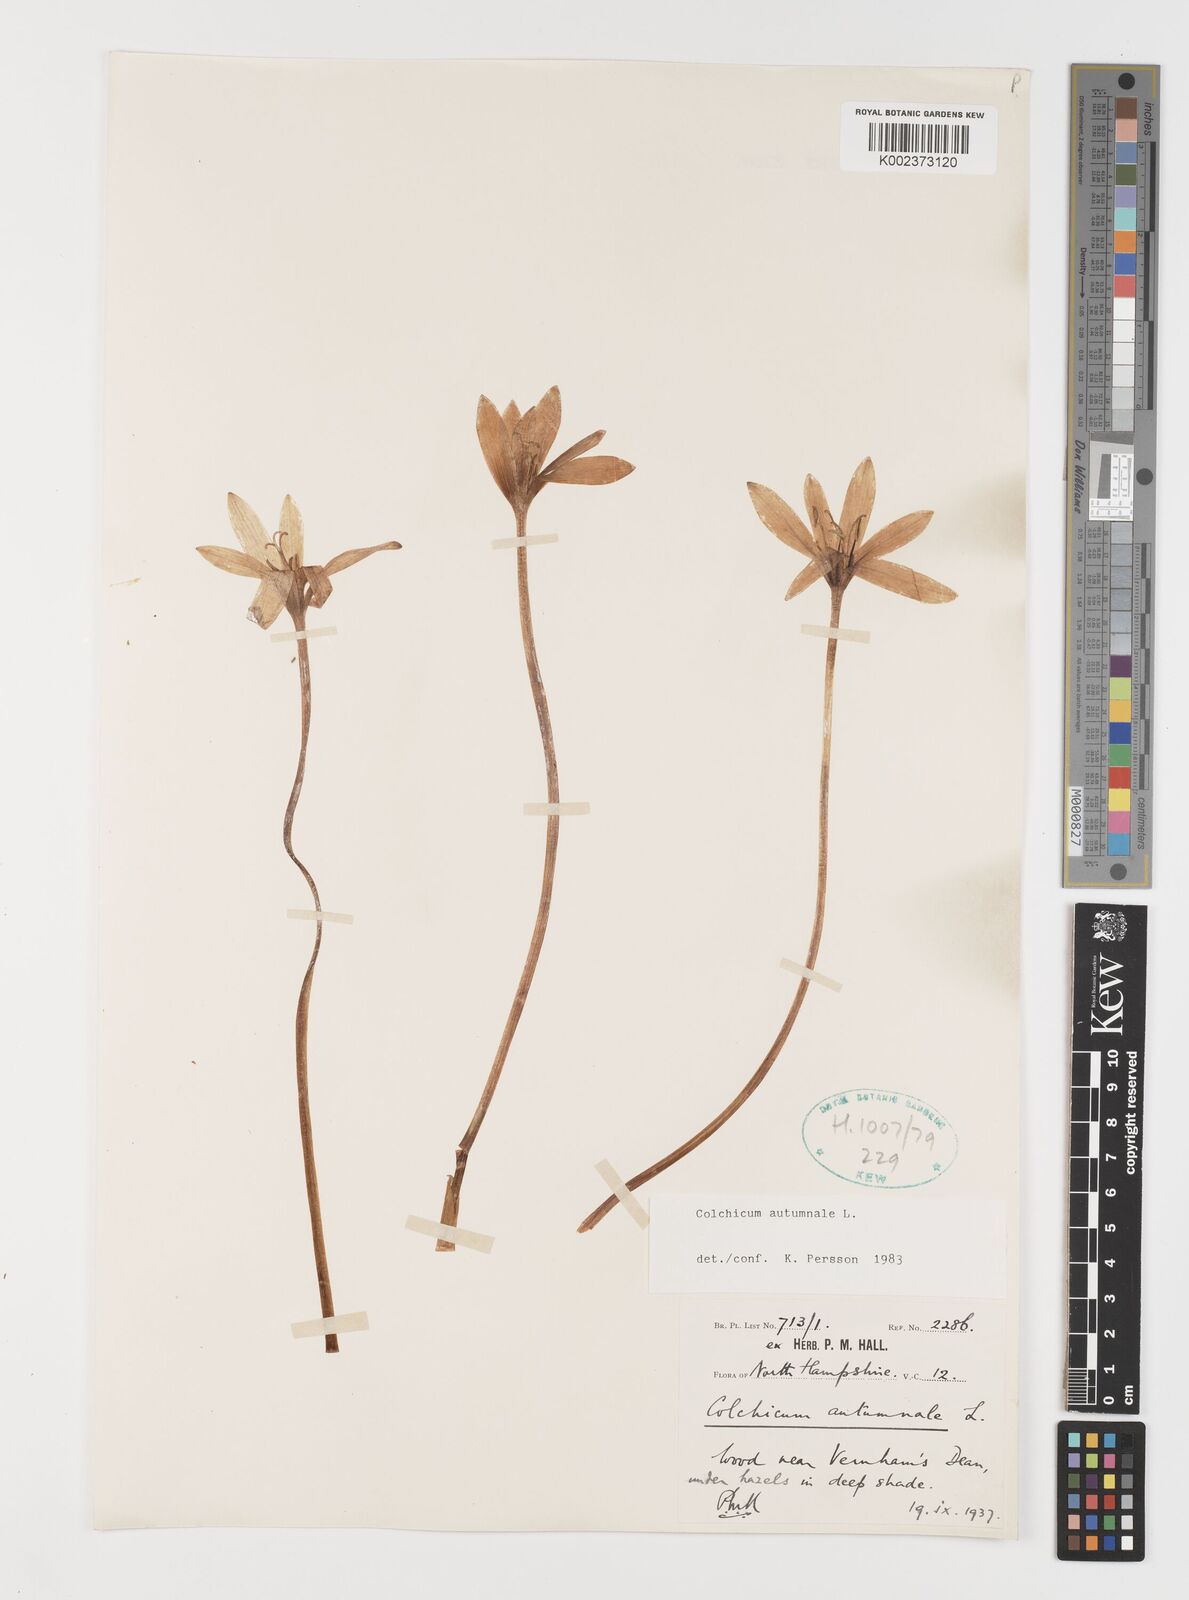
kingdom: Plantae
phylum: Tracheophyta
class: Liliopsida
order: Liliales
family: Colchicaceae
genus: Colchicum
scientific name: Colchicum autumnale
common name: Autumn crocus
